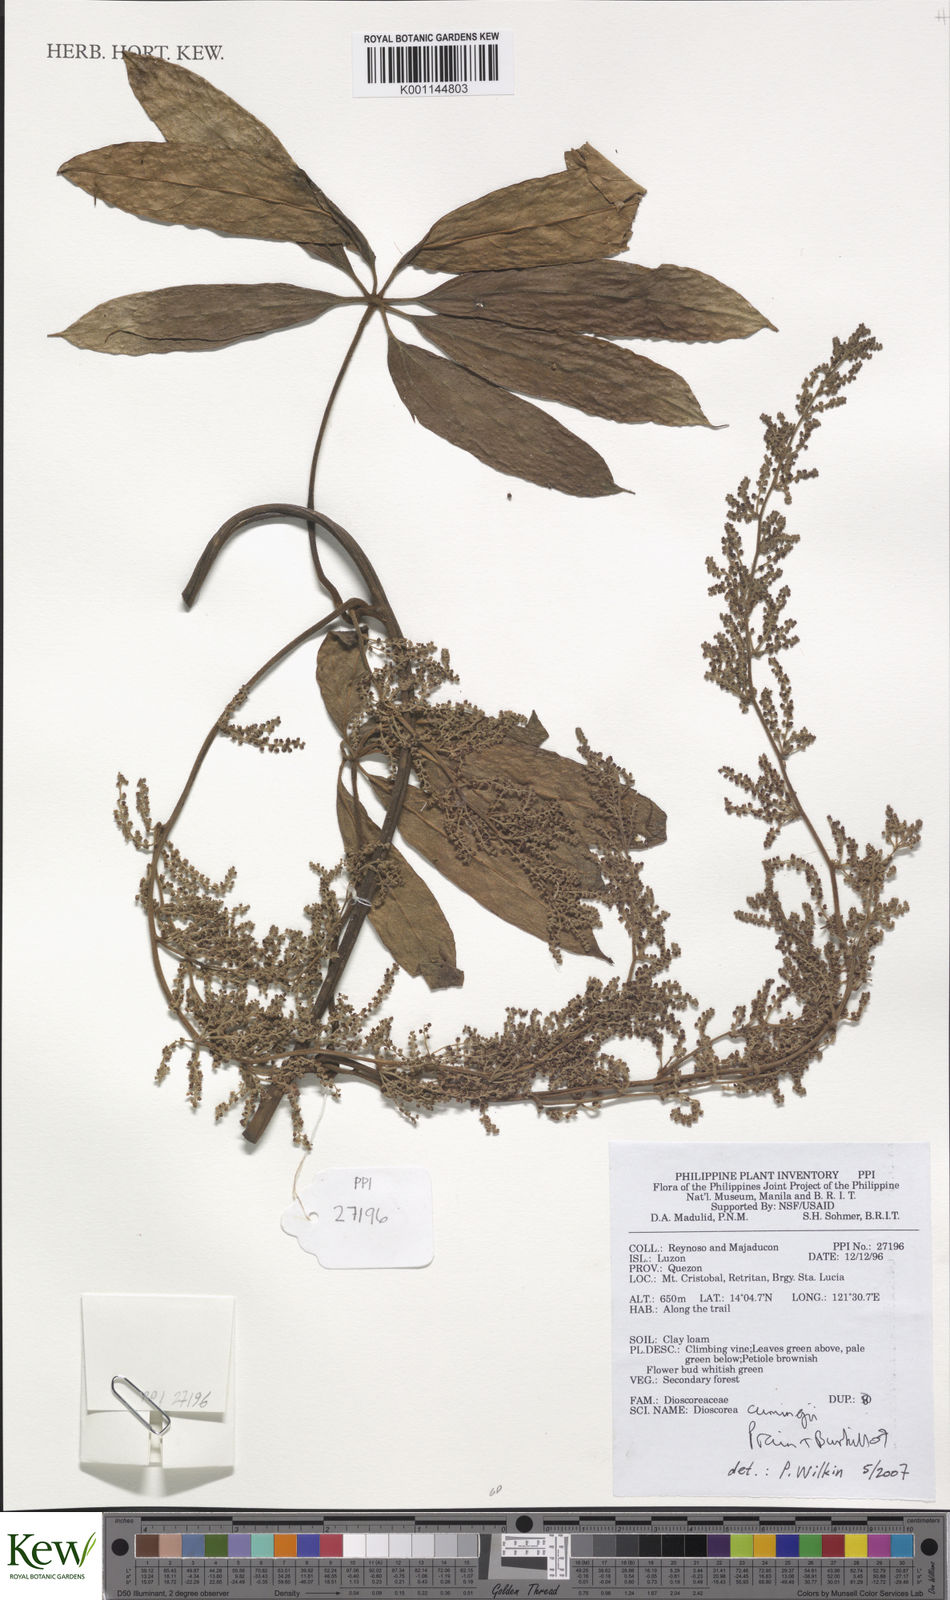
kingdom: Plantae
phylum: Tracheophyta
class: Liliopsida
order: Dioscoreales
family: Dioscoreaceae
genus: Dioscorea
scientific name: Dioscorea cumingii
